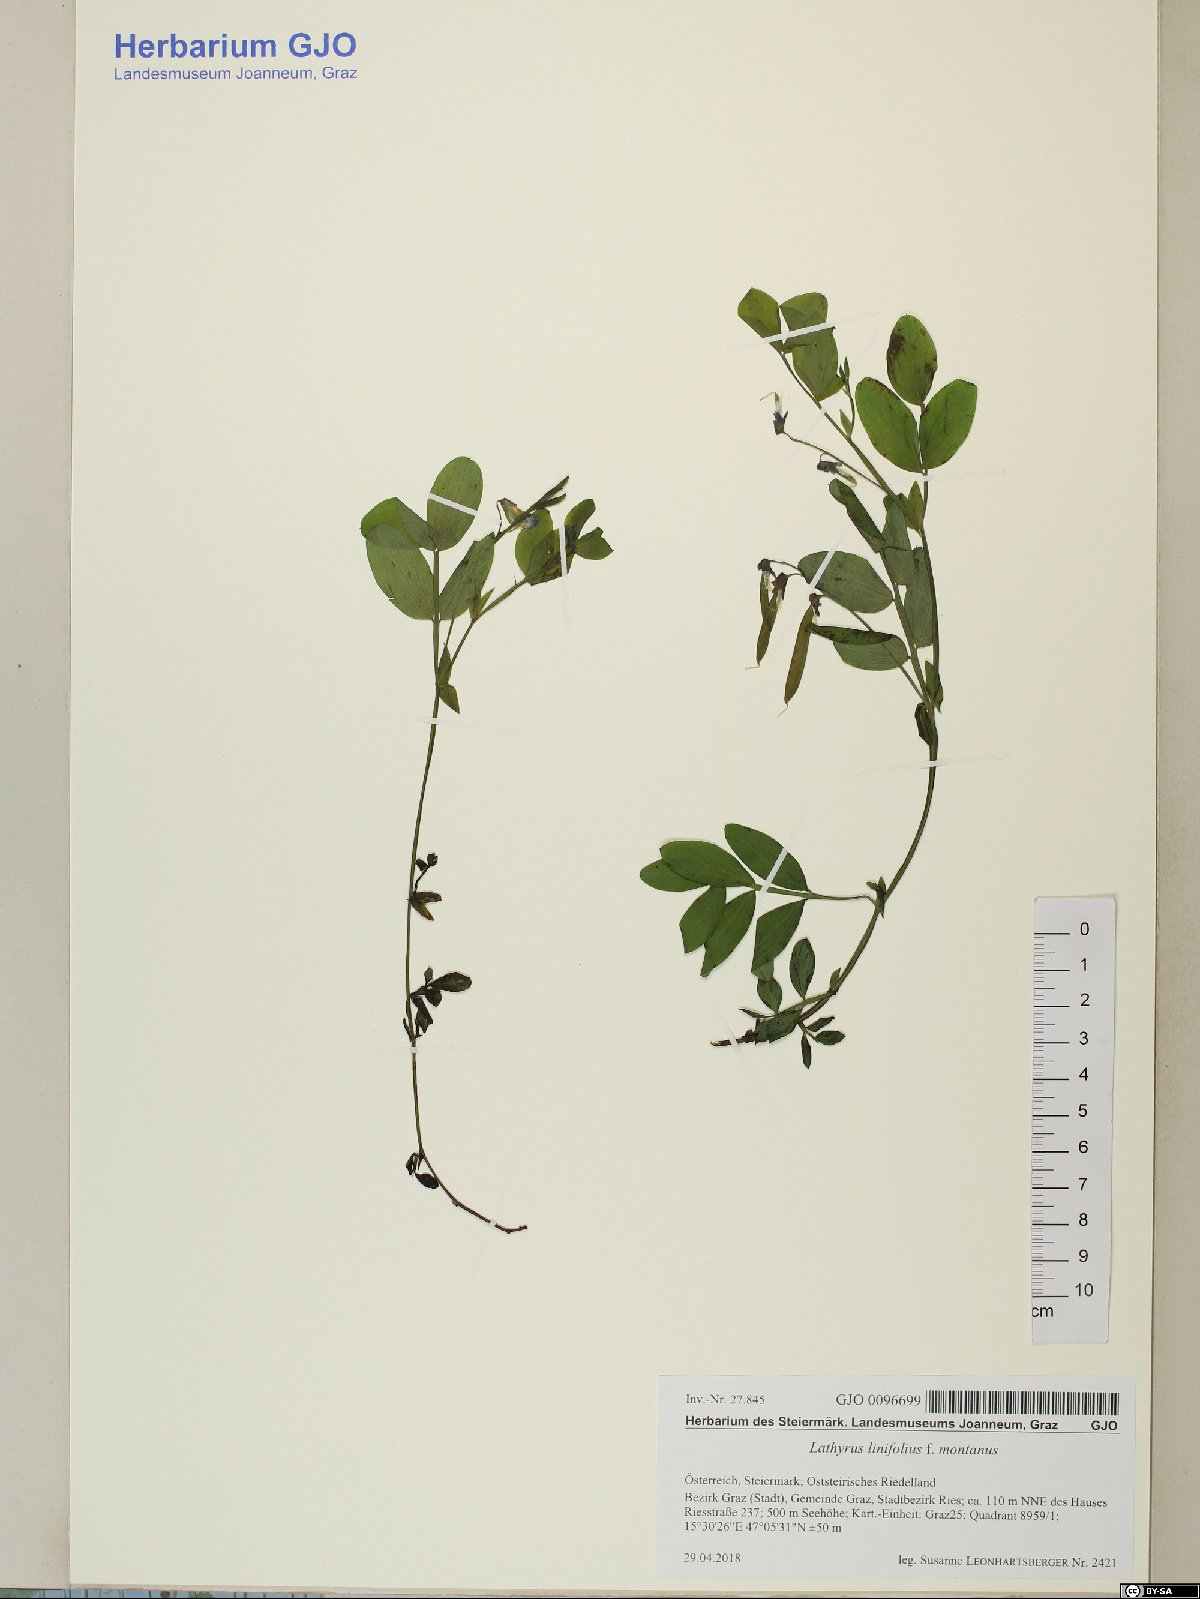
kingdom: Plantae
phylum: Tracheophyta
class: Magnoliopsida
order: Fabales
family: Fabaceae
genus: Lathyrus
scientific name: Lathyrus linifolius
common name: Bitter-vetch
